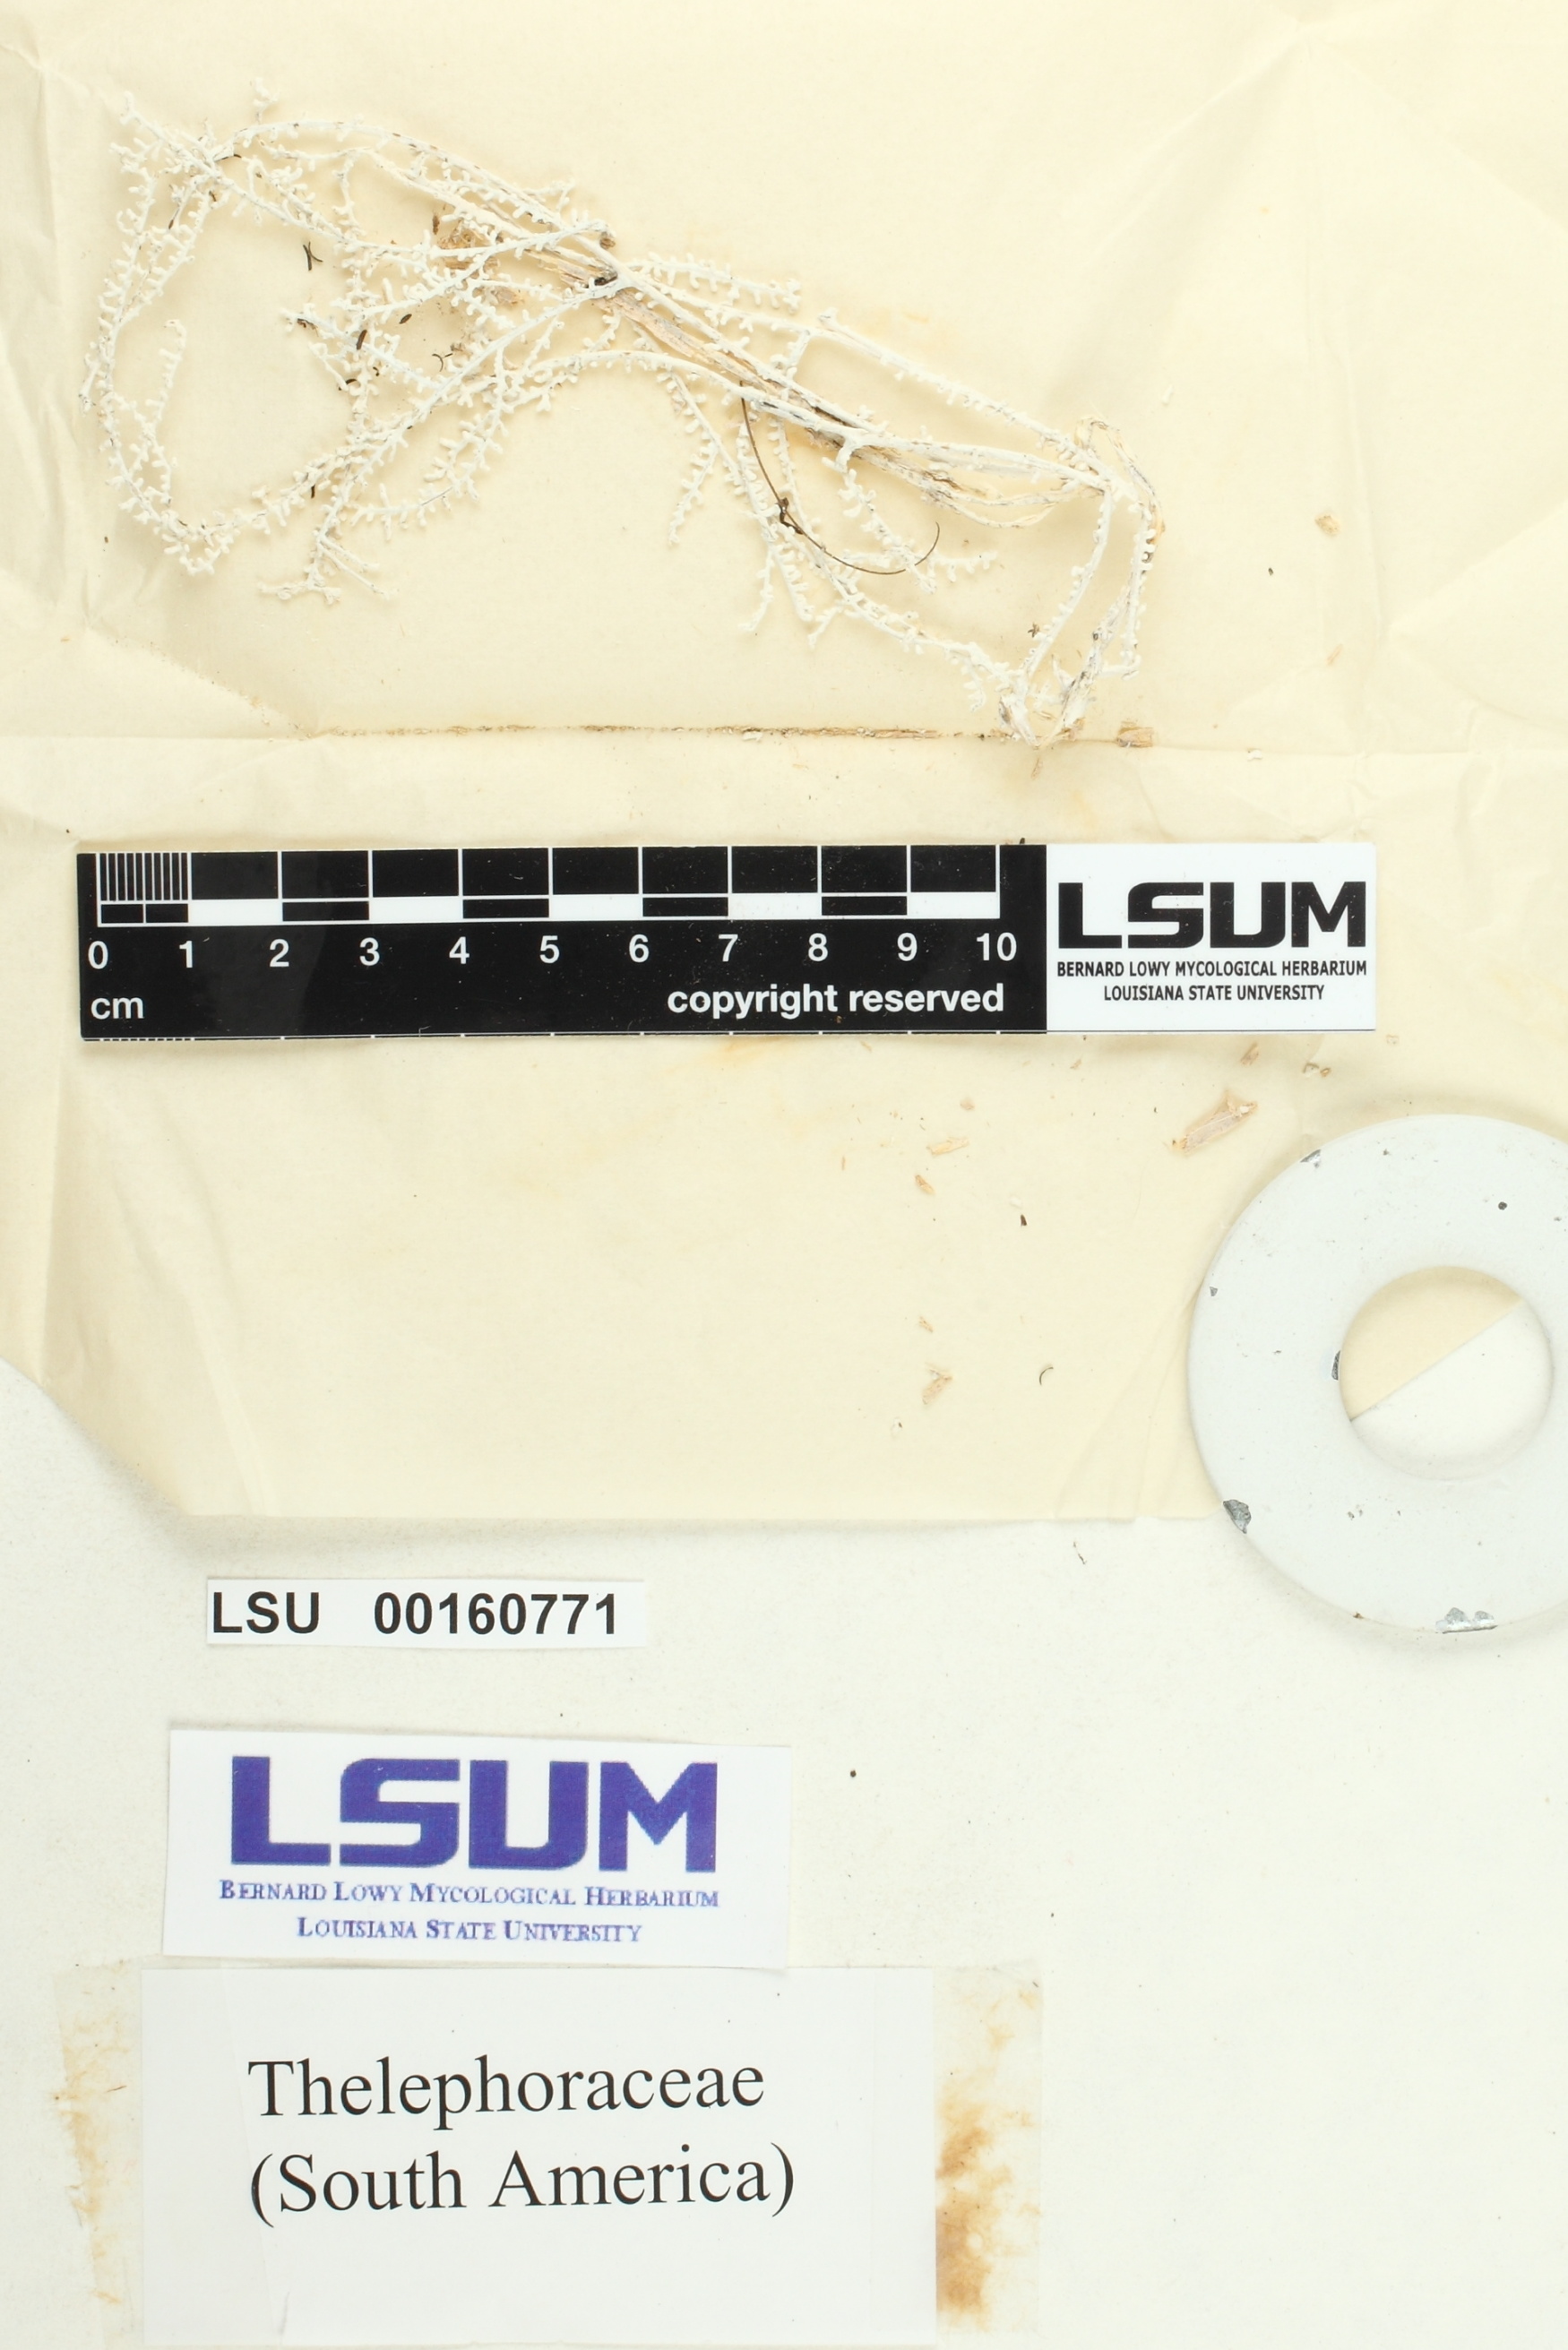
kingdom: Fungi
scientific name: Fungi
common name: Fungi
